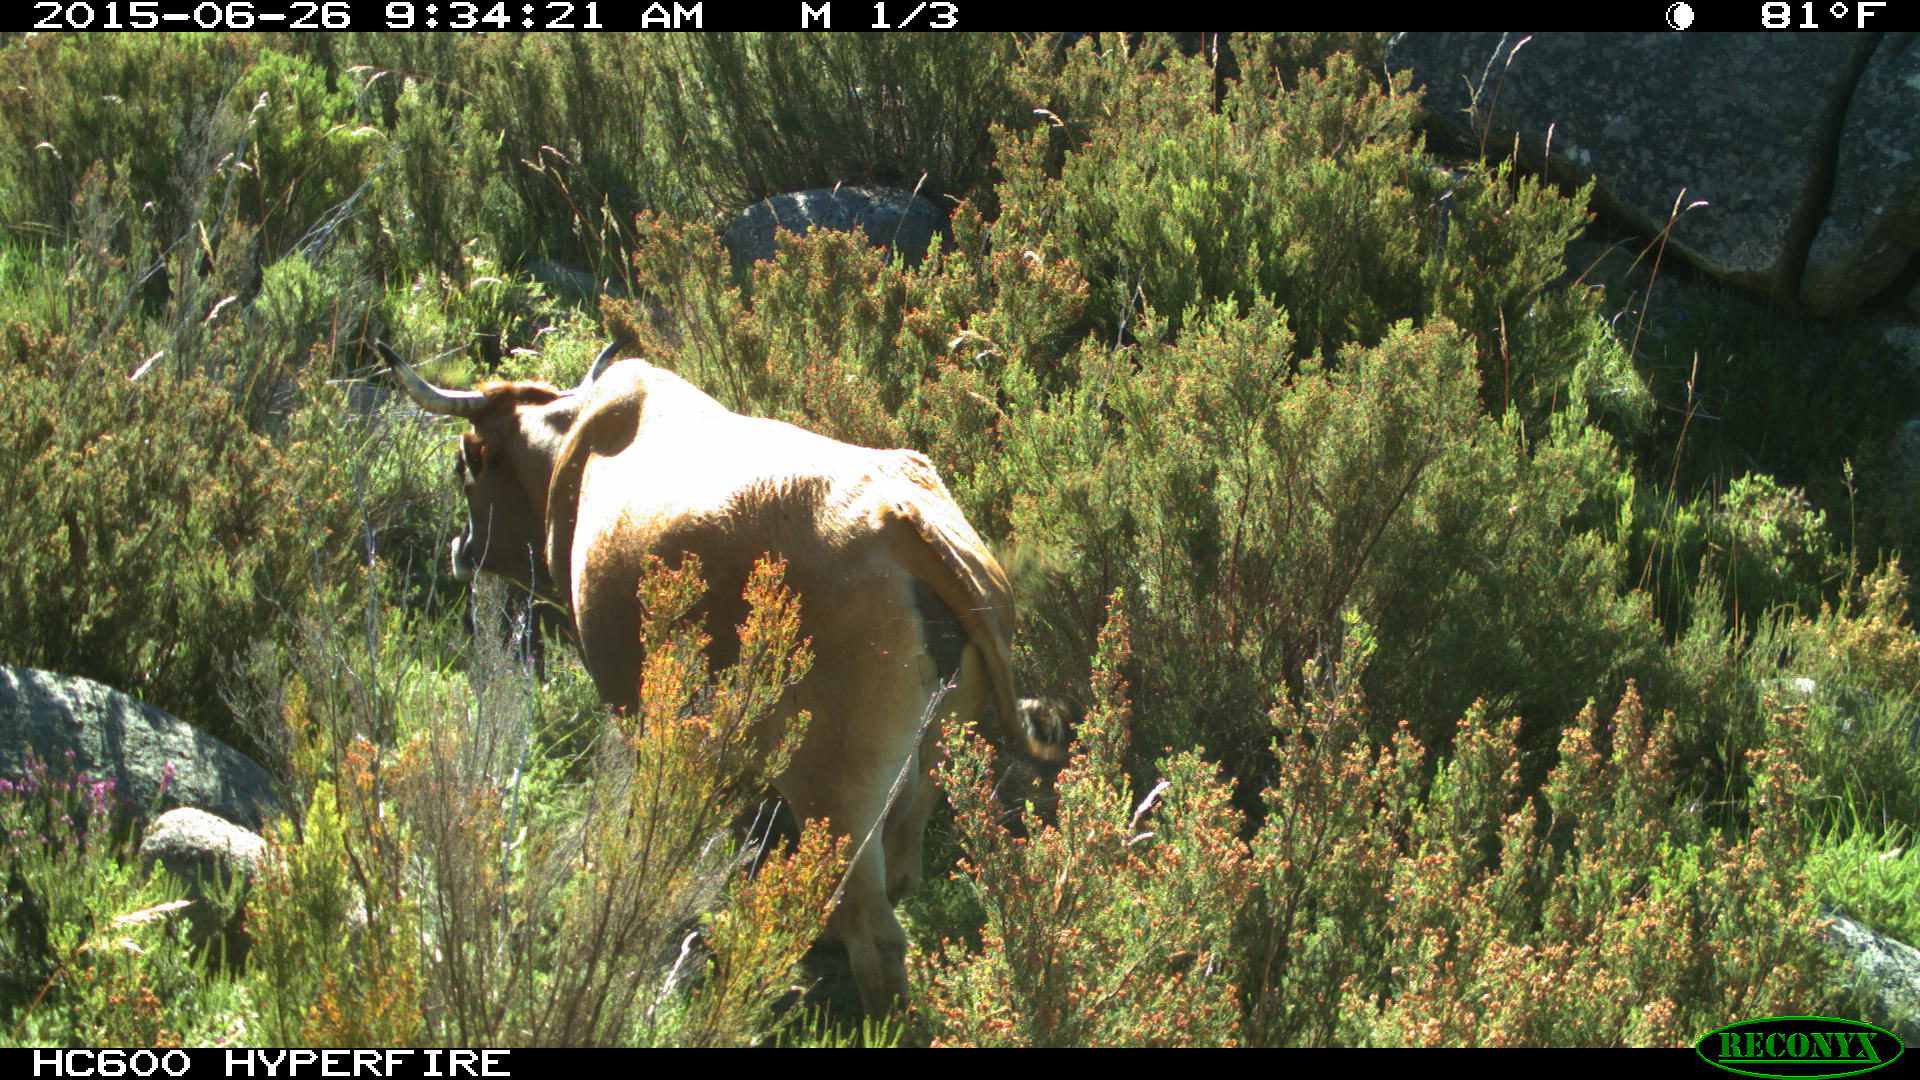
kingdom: Animalia
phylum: Chordata
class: Mammalia
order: Artiodactyla
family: Bovidae
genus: Bos
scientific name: Bos taurus
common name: Domesticated cattle
